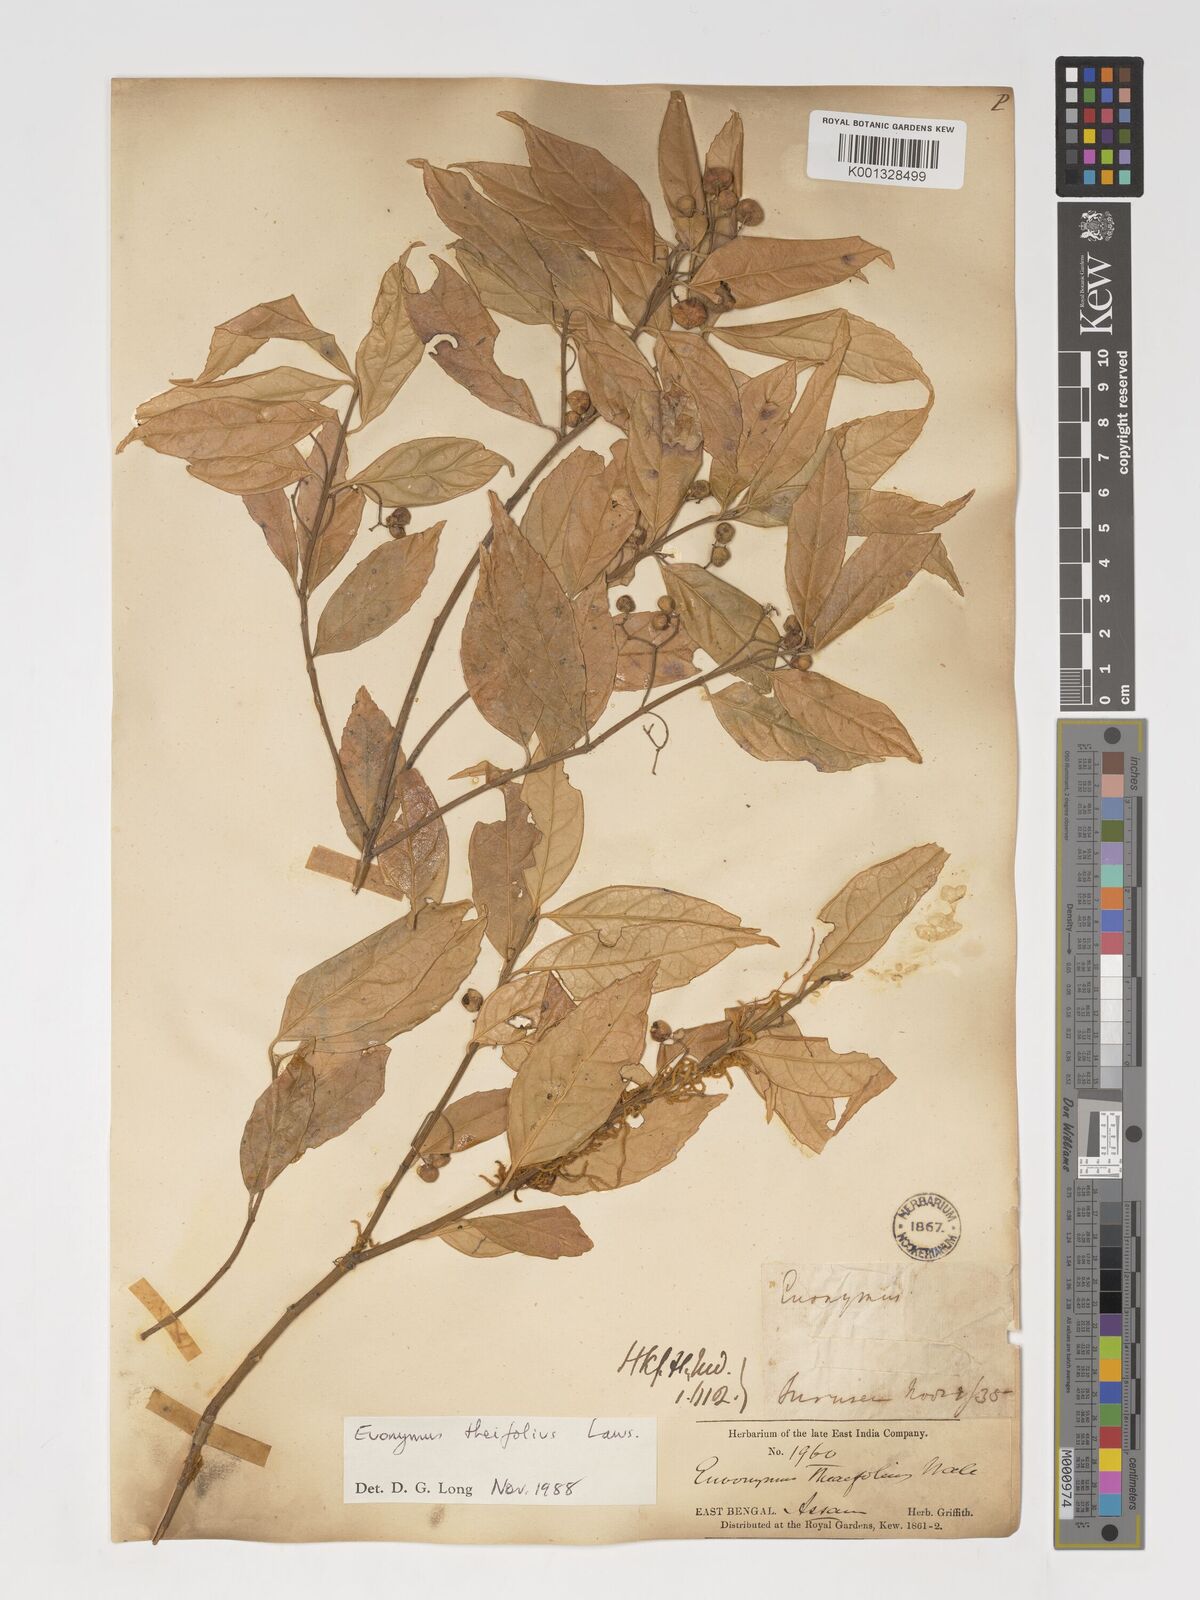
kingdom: Plantae
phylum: Tracheophyta
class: Magnoliopsida
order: Celastrales
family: Celastraceae
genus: Euonymus
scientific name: Euonymus theifolius
